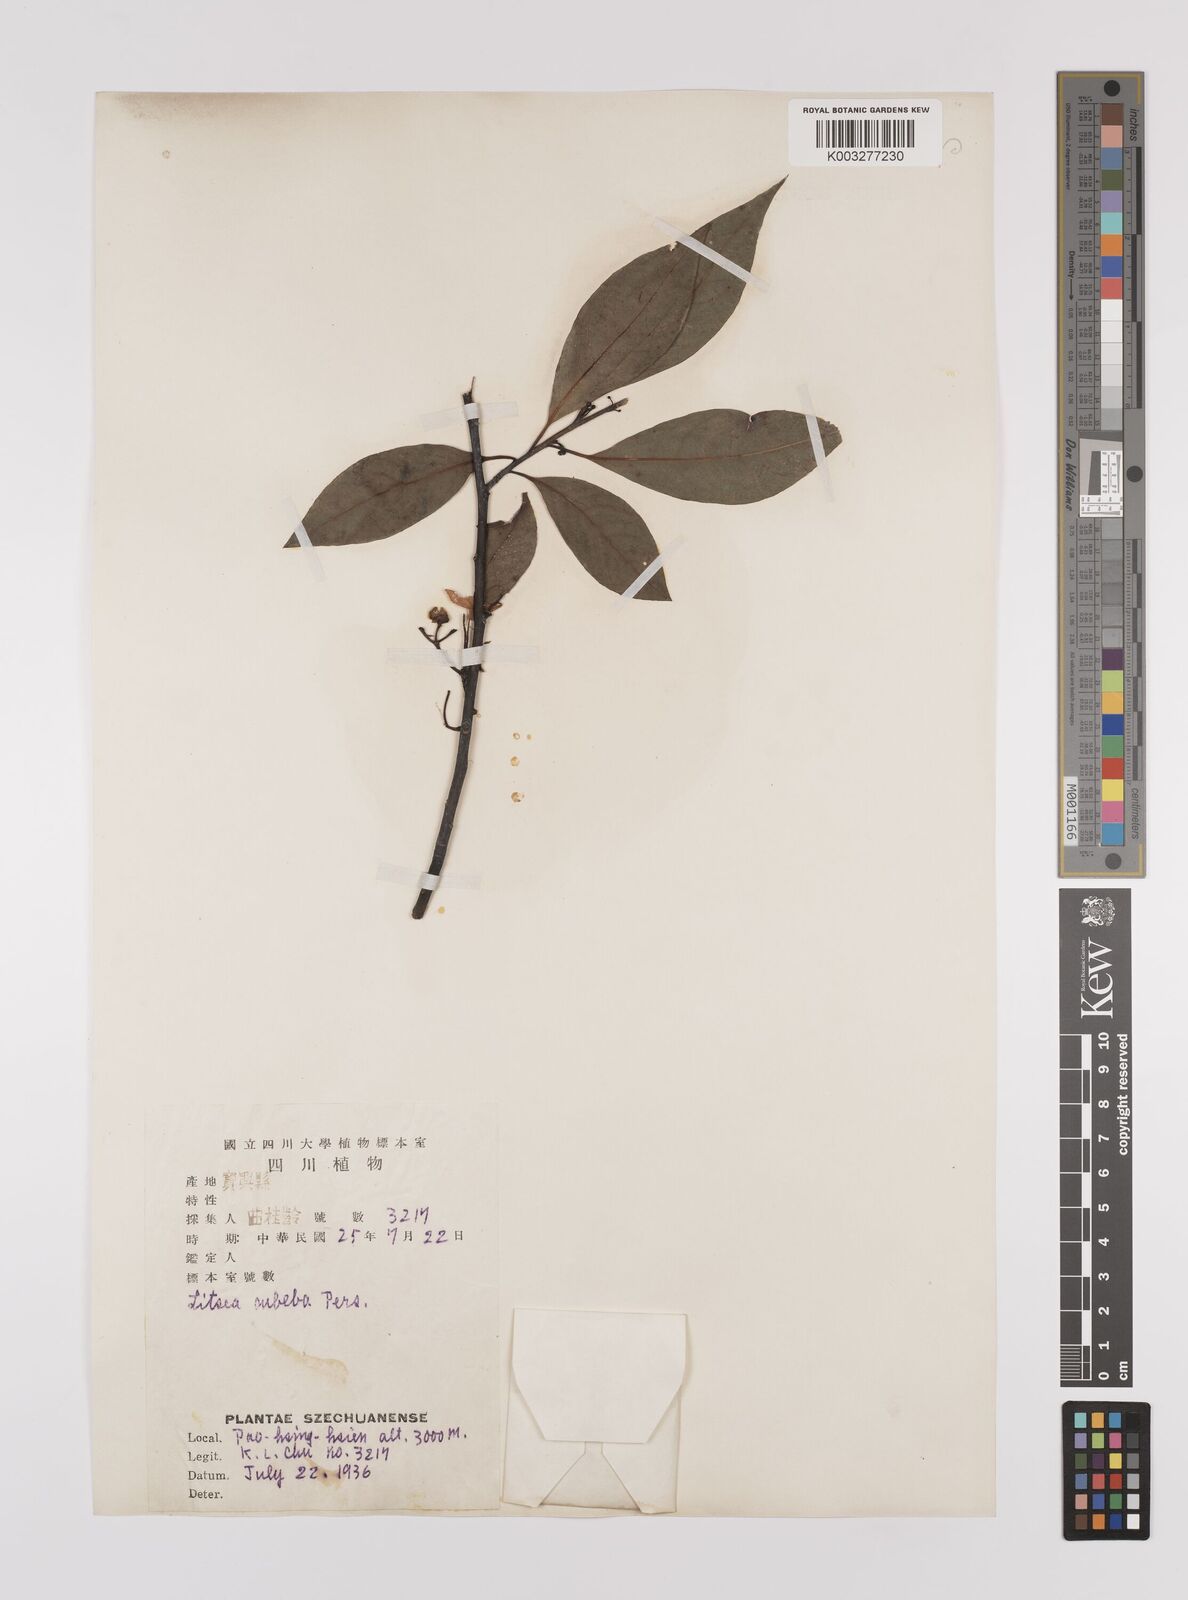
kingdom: Plantae
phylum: Tracheophyta
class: Magnoliopsida
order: Laurales
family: Lauraceae
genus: Litsea
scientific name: Litsea cubeba
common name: Mountain-pepper
